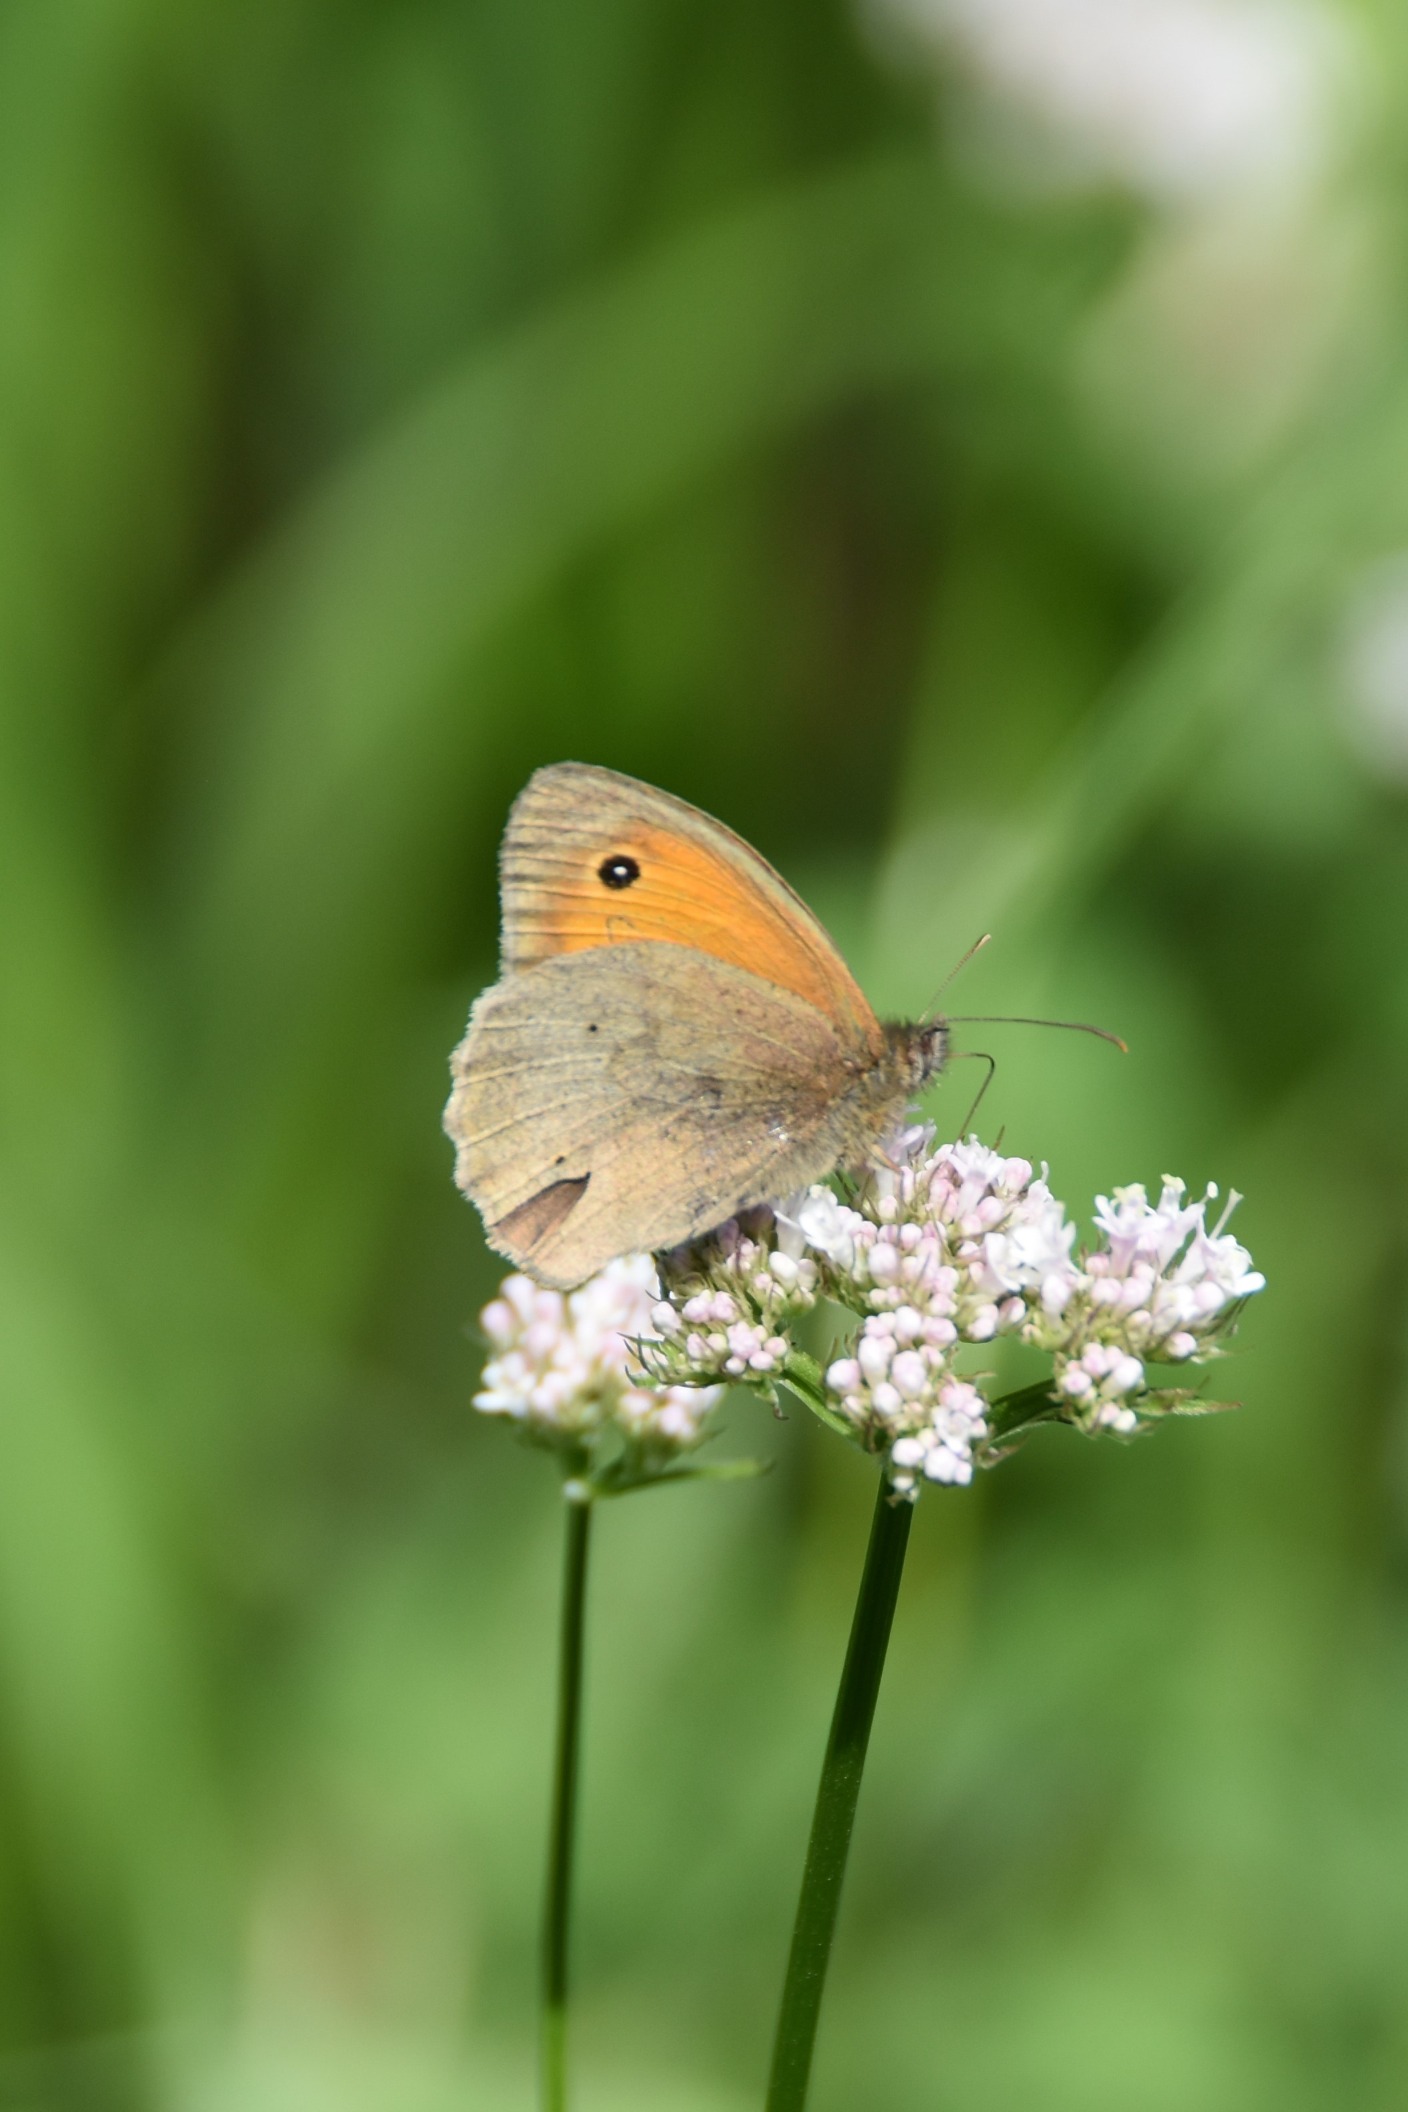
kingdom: Animalia
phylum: Arthropoda
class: Insecta
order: Lepidoptera
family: Nymphalidae
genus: Maniola
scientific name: Maniola jurtina
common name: Græsrandøje
